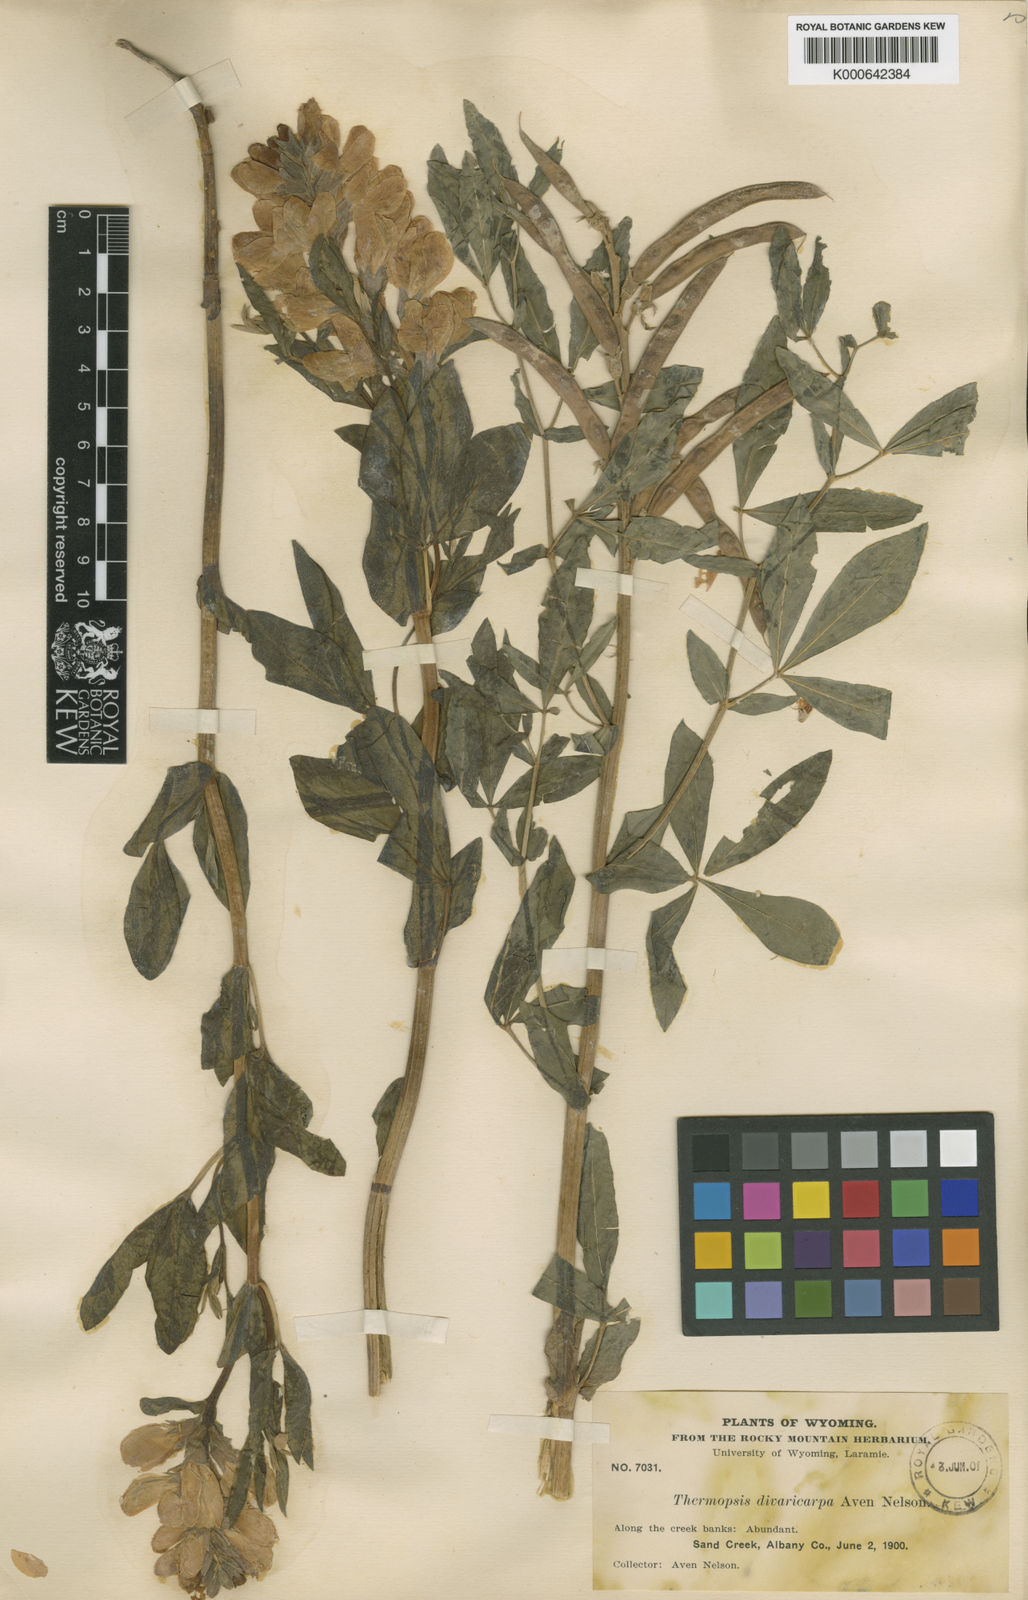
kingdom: Plantae
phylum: Tracheophyta
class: Magnoliopsida
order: Fabales
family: Fabaceae
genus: Thermopsis
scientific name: Thermopsis rhombifolia
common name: Circle-pod-pea
